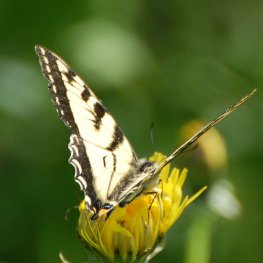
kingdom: Animalia
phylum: Arthropoda
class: Insecta
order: Lepidoptera
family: Papilionidae
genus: Pterourus
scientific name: Pterourus canadensis
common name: Canadian Tiger Swallowtail
